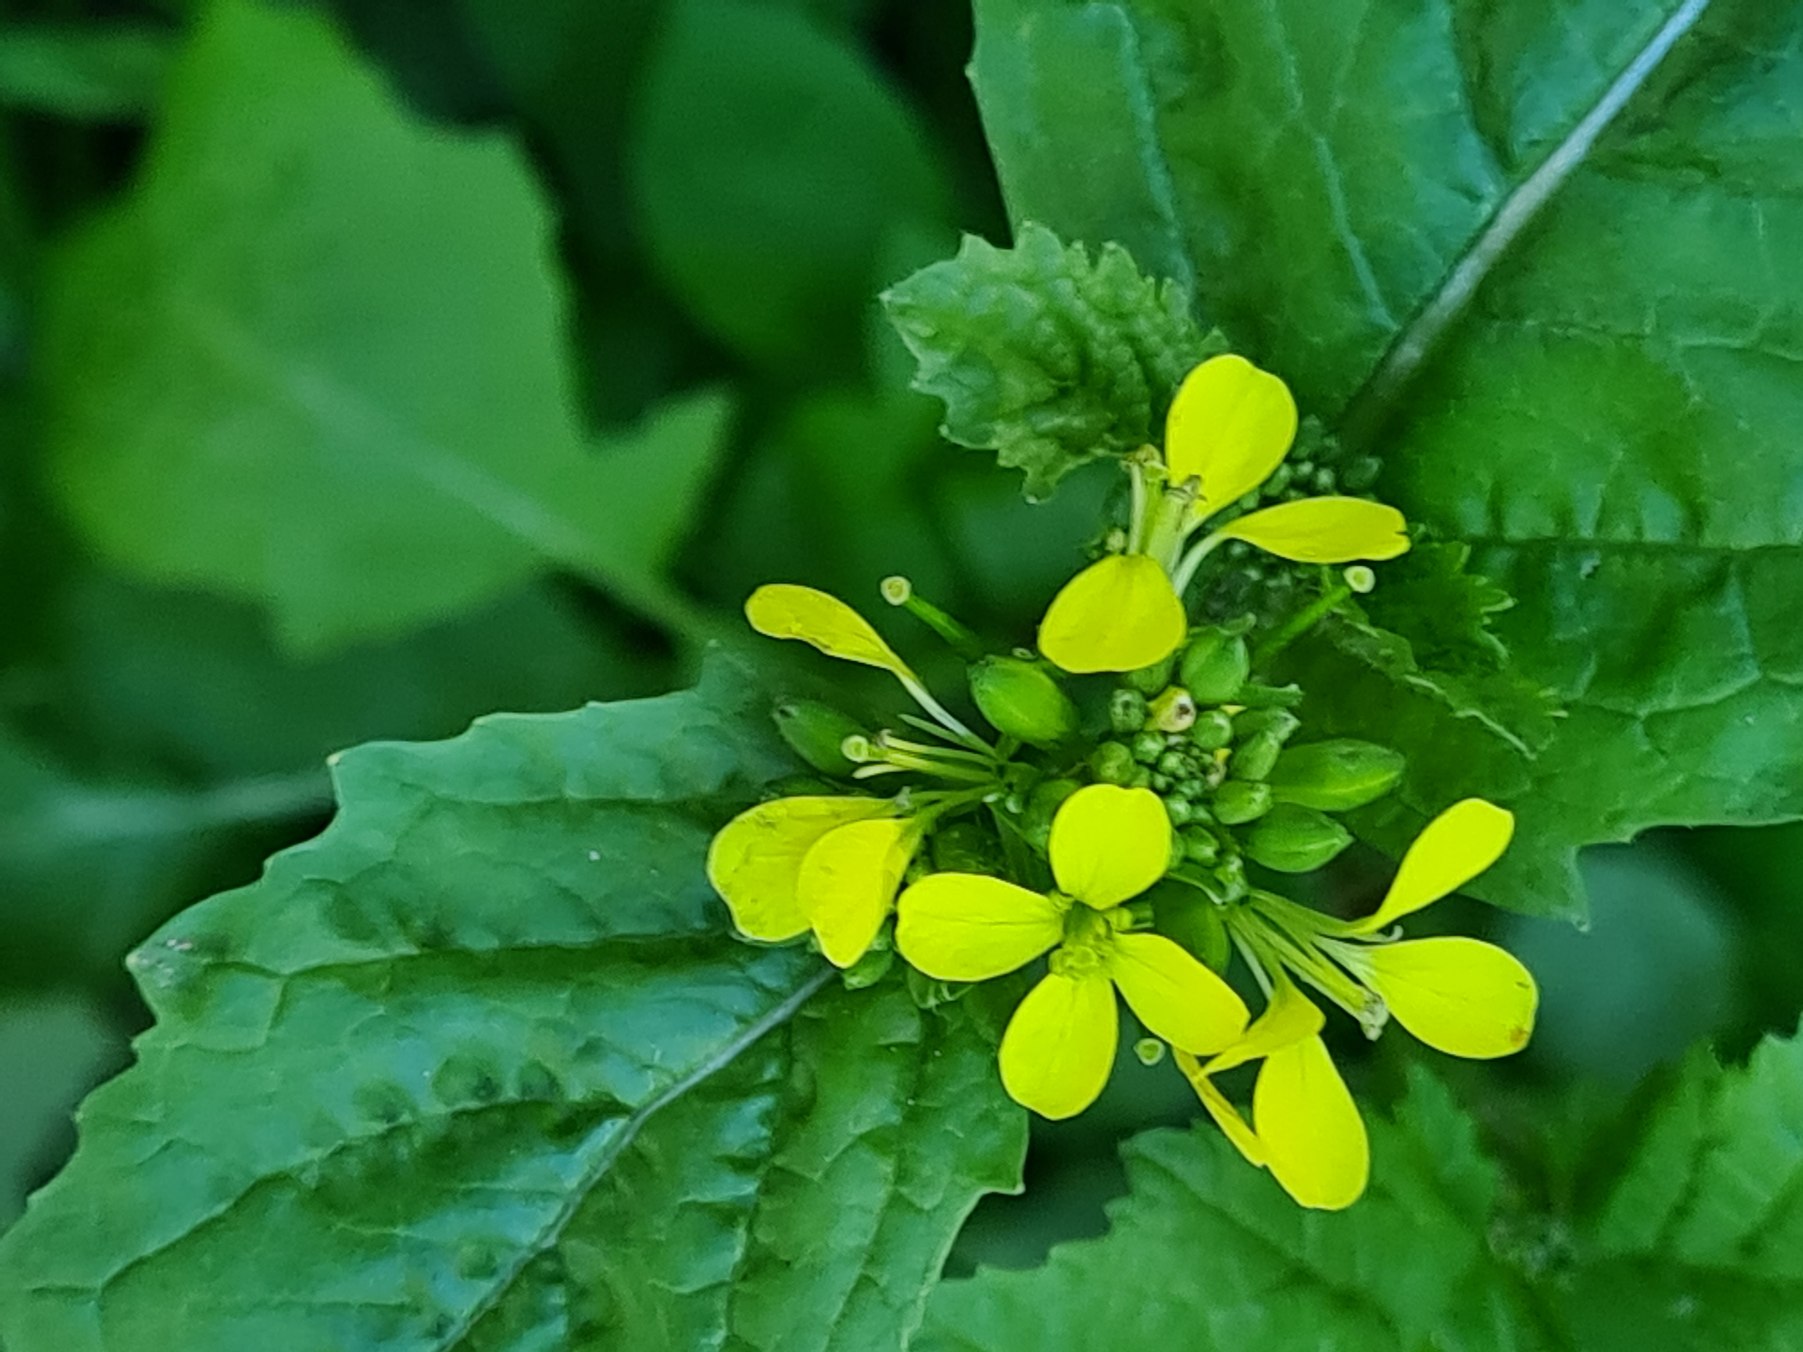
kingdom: Plantae
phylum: Tracheophyta
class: Magnoliopsida
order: Brassicales
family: Brassicaceae
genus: Sinapis
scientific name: Sinapis arvensis
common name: Ager-sennep
